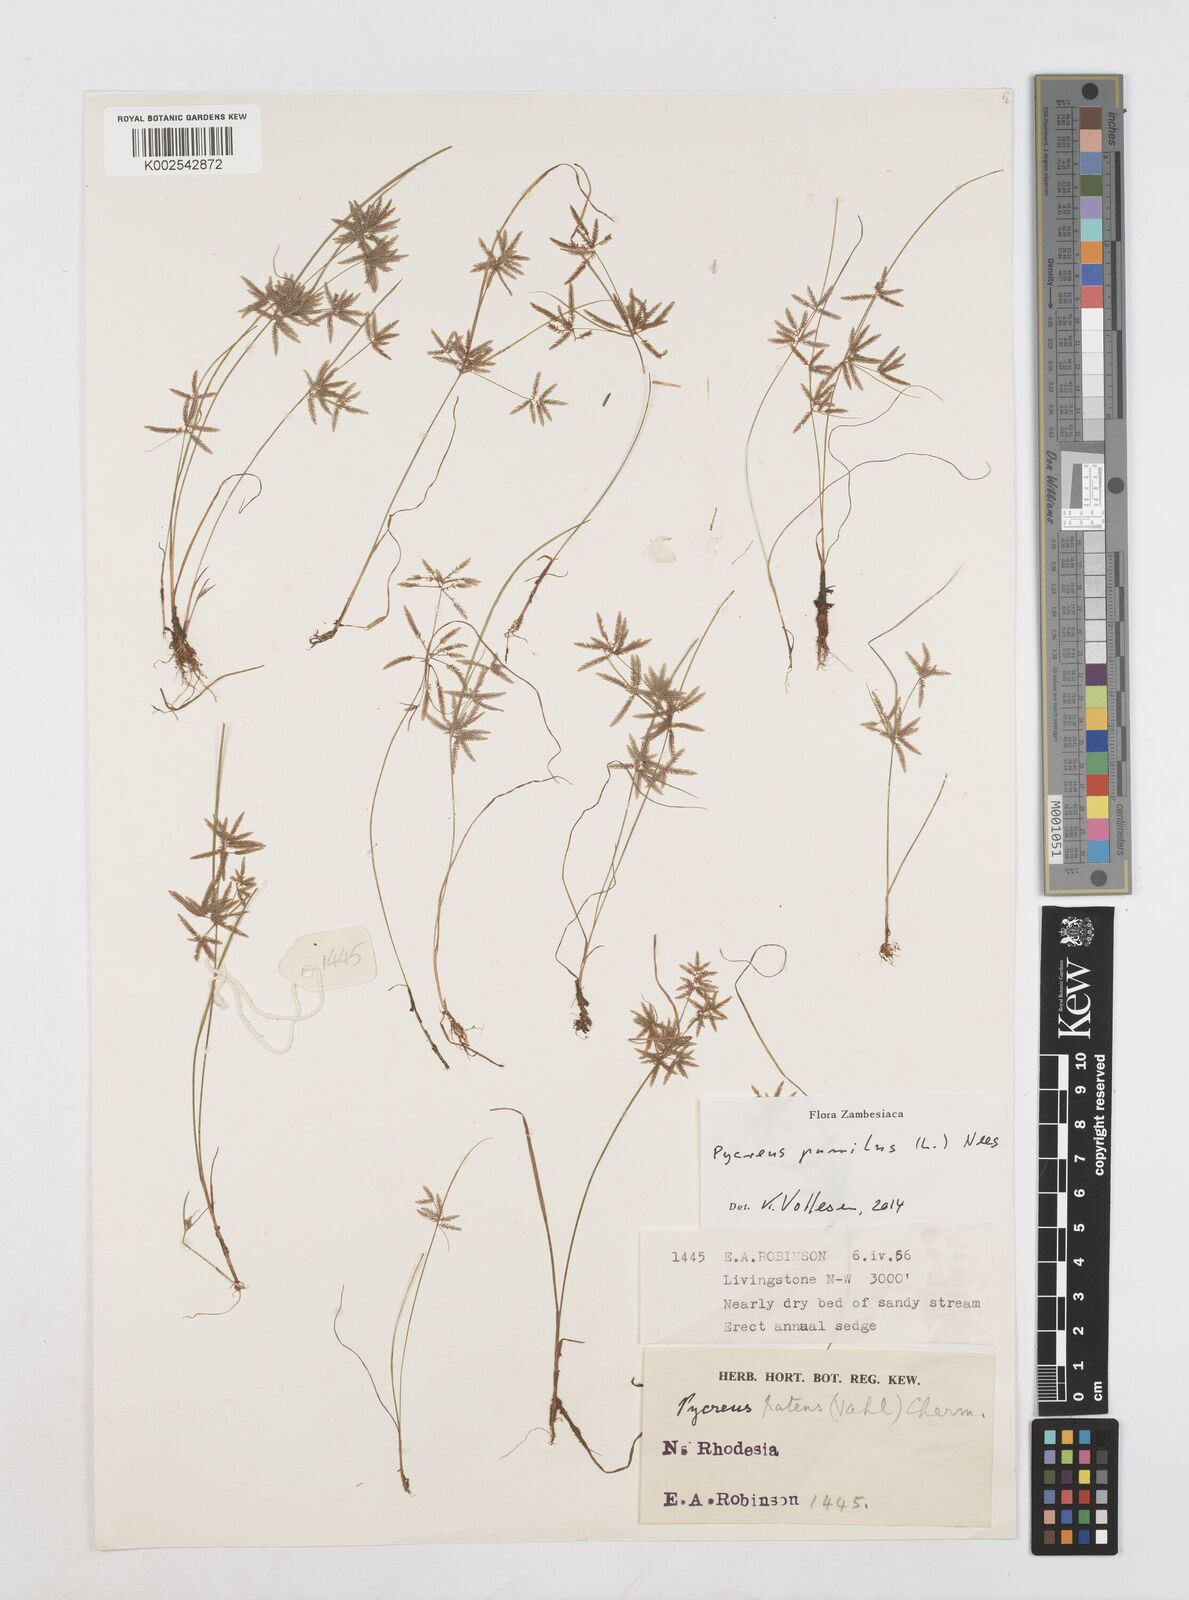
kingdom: Plantae
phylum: Tracheophyta
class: Liliopsida
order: Poales
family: Cyperaceae
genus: Cyperus
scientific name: Cyperus pumilus
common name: Low flatsedge
